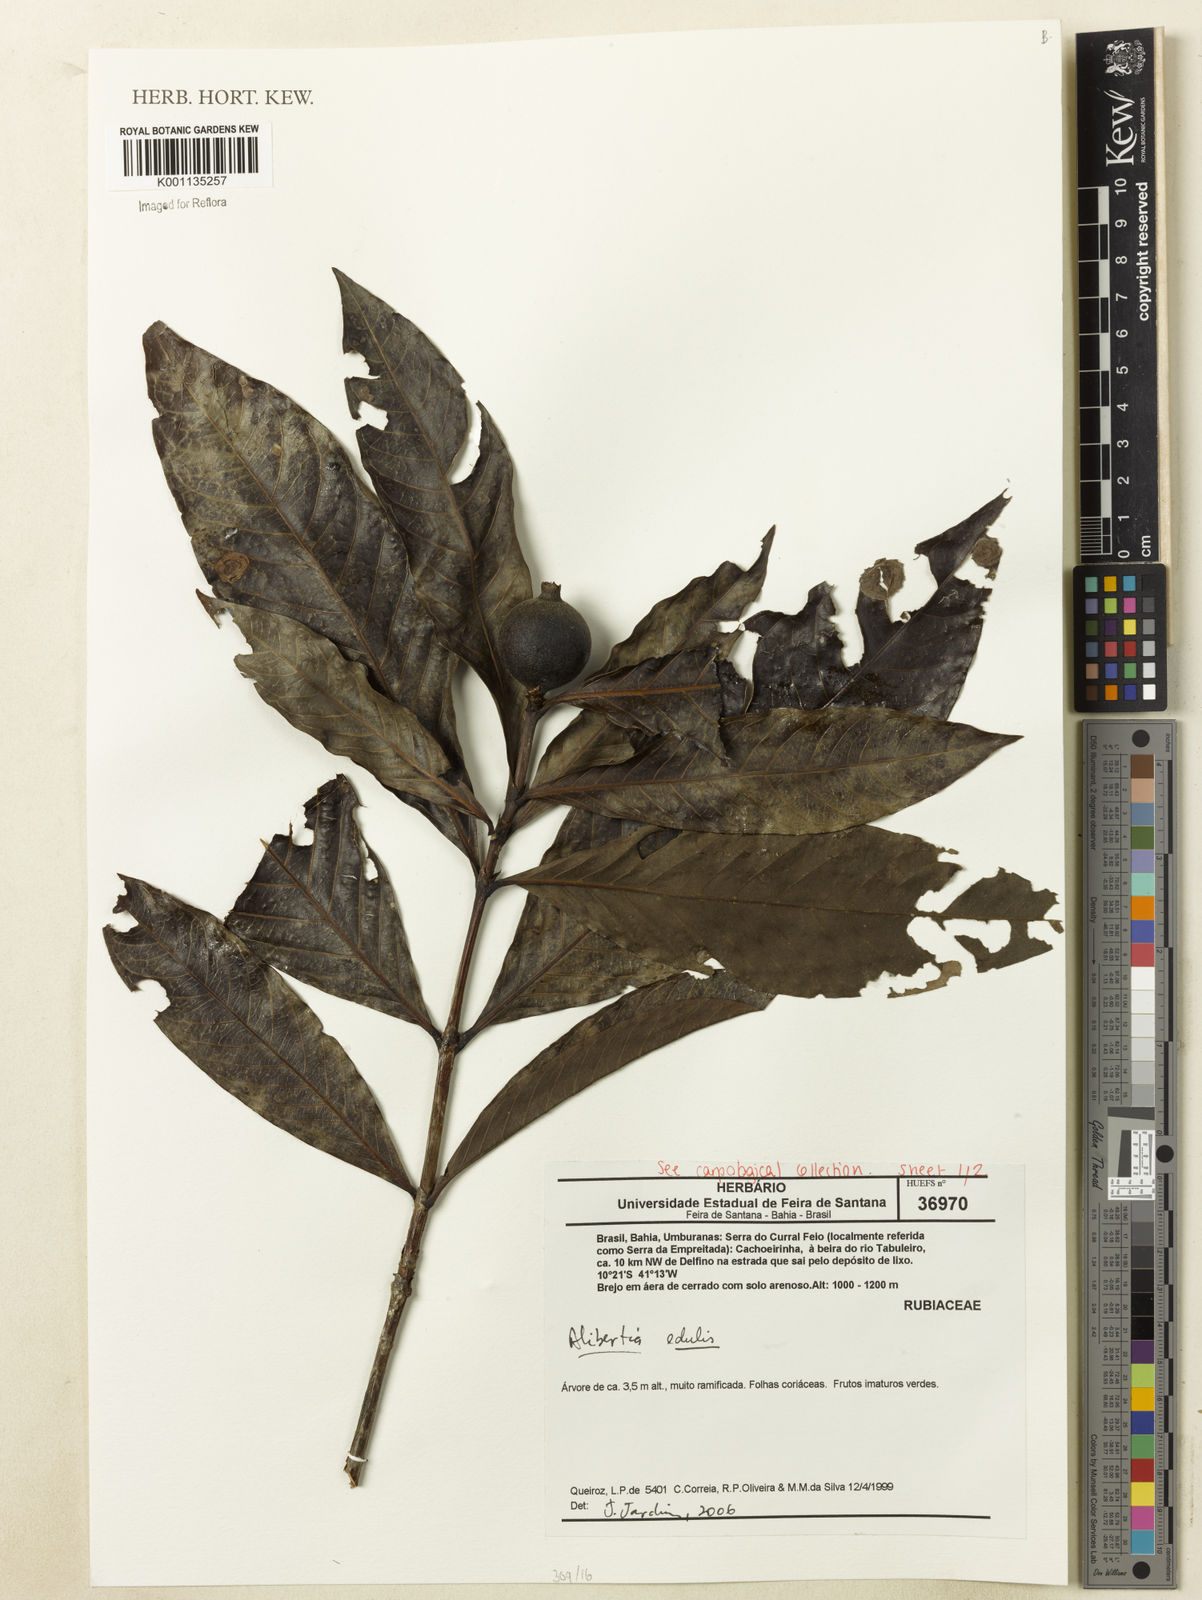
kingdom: Plantae
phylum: Tracheophyta
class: Magnoliopsida
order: Gentianales
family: Rubiaceae
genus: Alibertia
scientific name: Alibertia edulis
